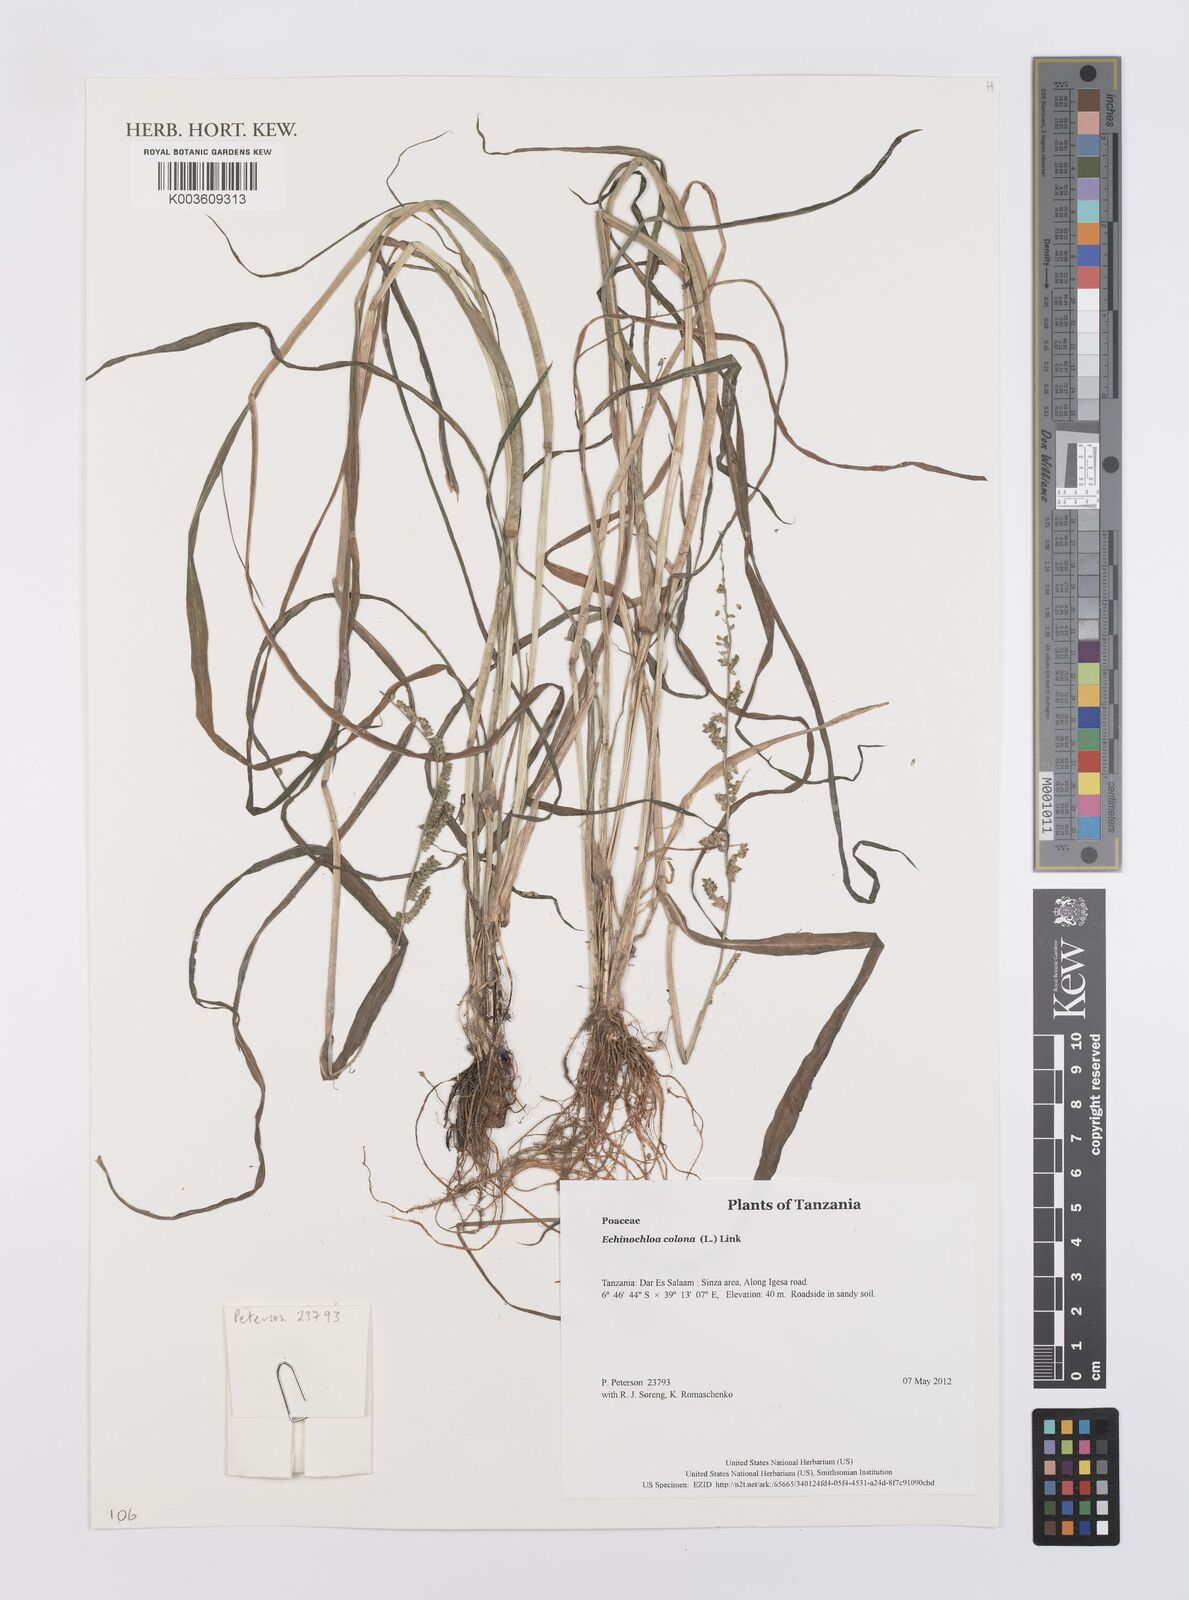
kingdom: Plantae
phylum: Tracheophyta
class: Liliopsida
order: Poales
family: Poaceae
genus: Echinochloa
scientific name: Echinochloa colonum
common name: Jungle rice
